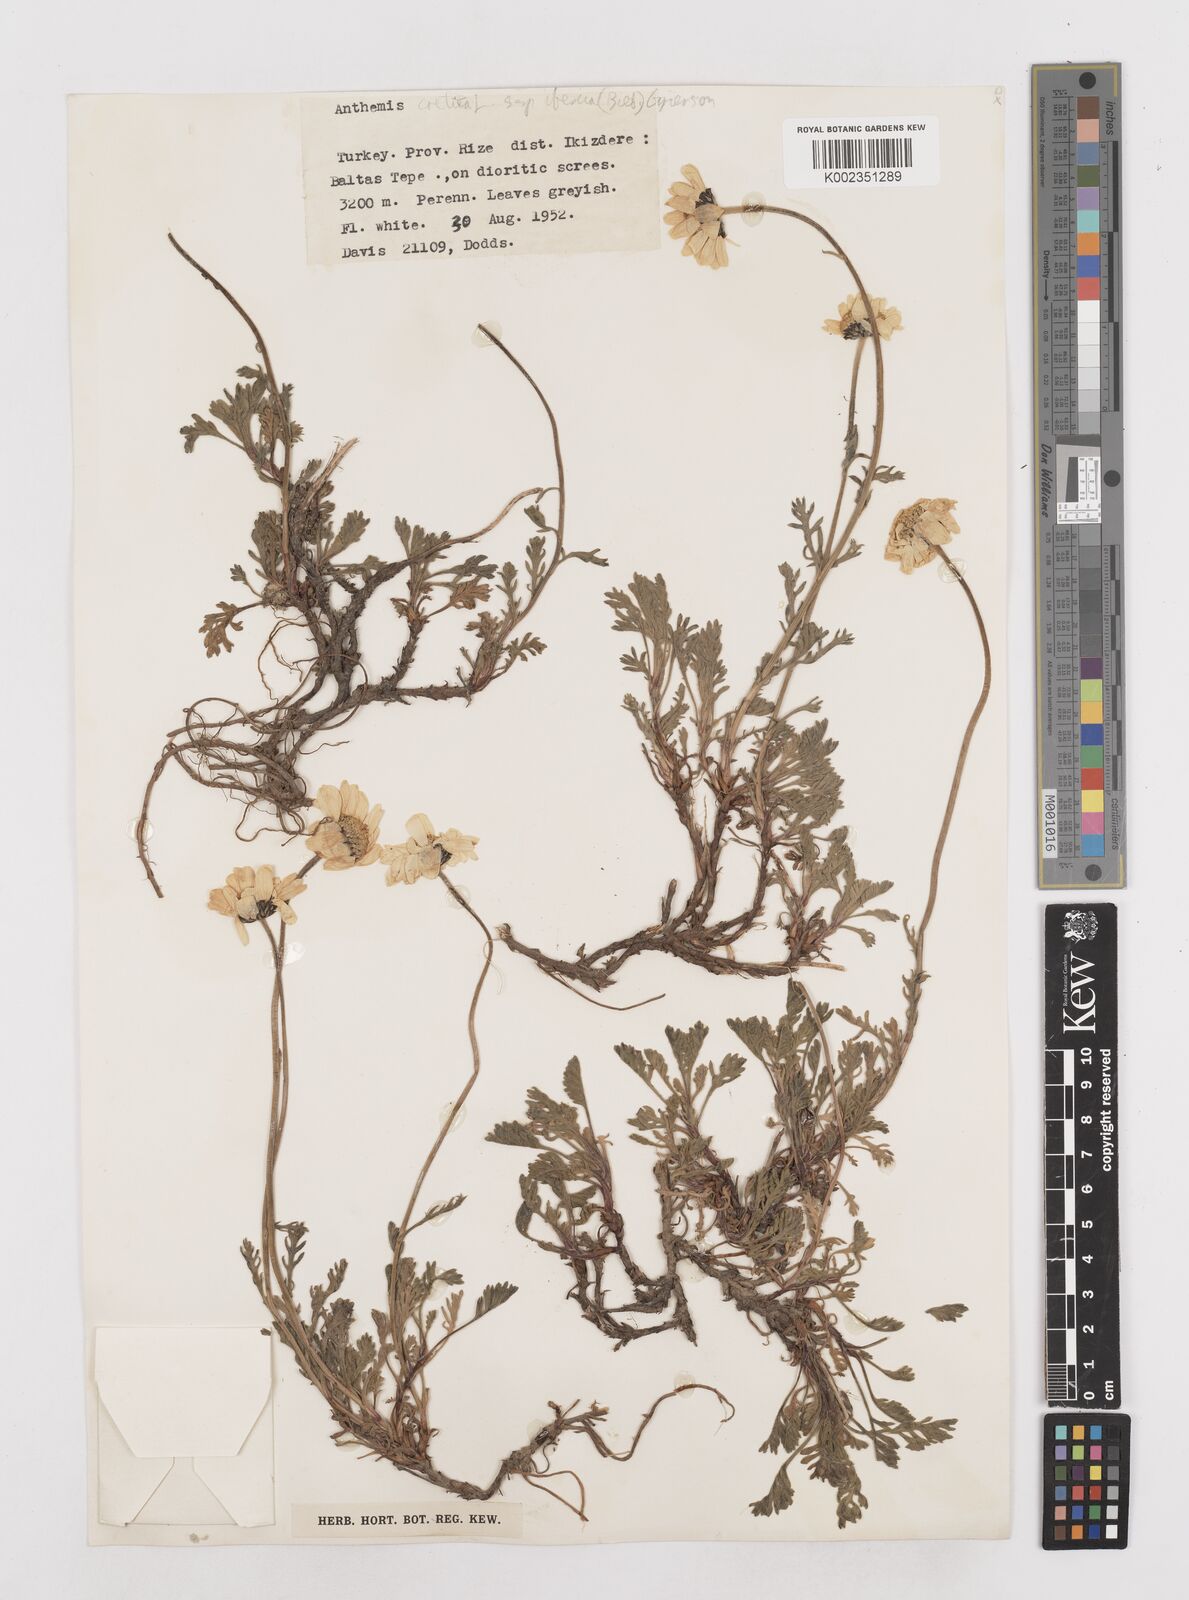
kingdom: Plantae
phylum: Tracheophyta
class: Magnoliopsida
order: Asterales
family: Asteraceae
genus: Anthemis
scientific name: Anthemis cretica
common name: Mountain dog-daisy
